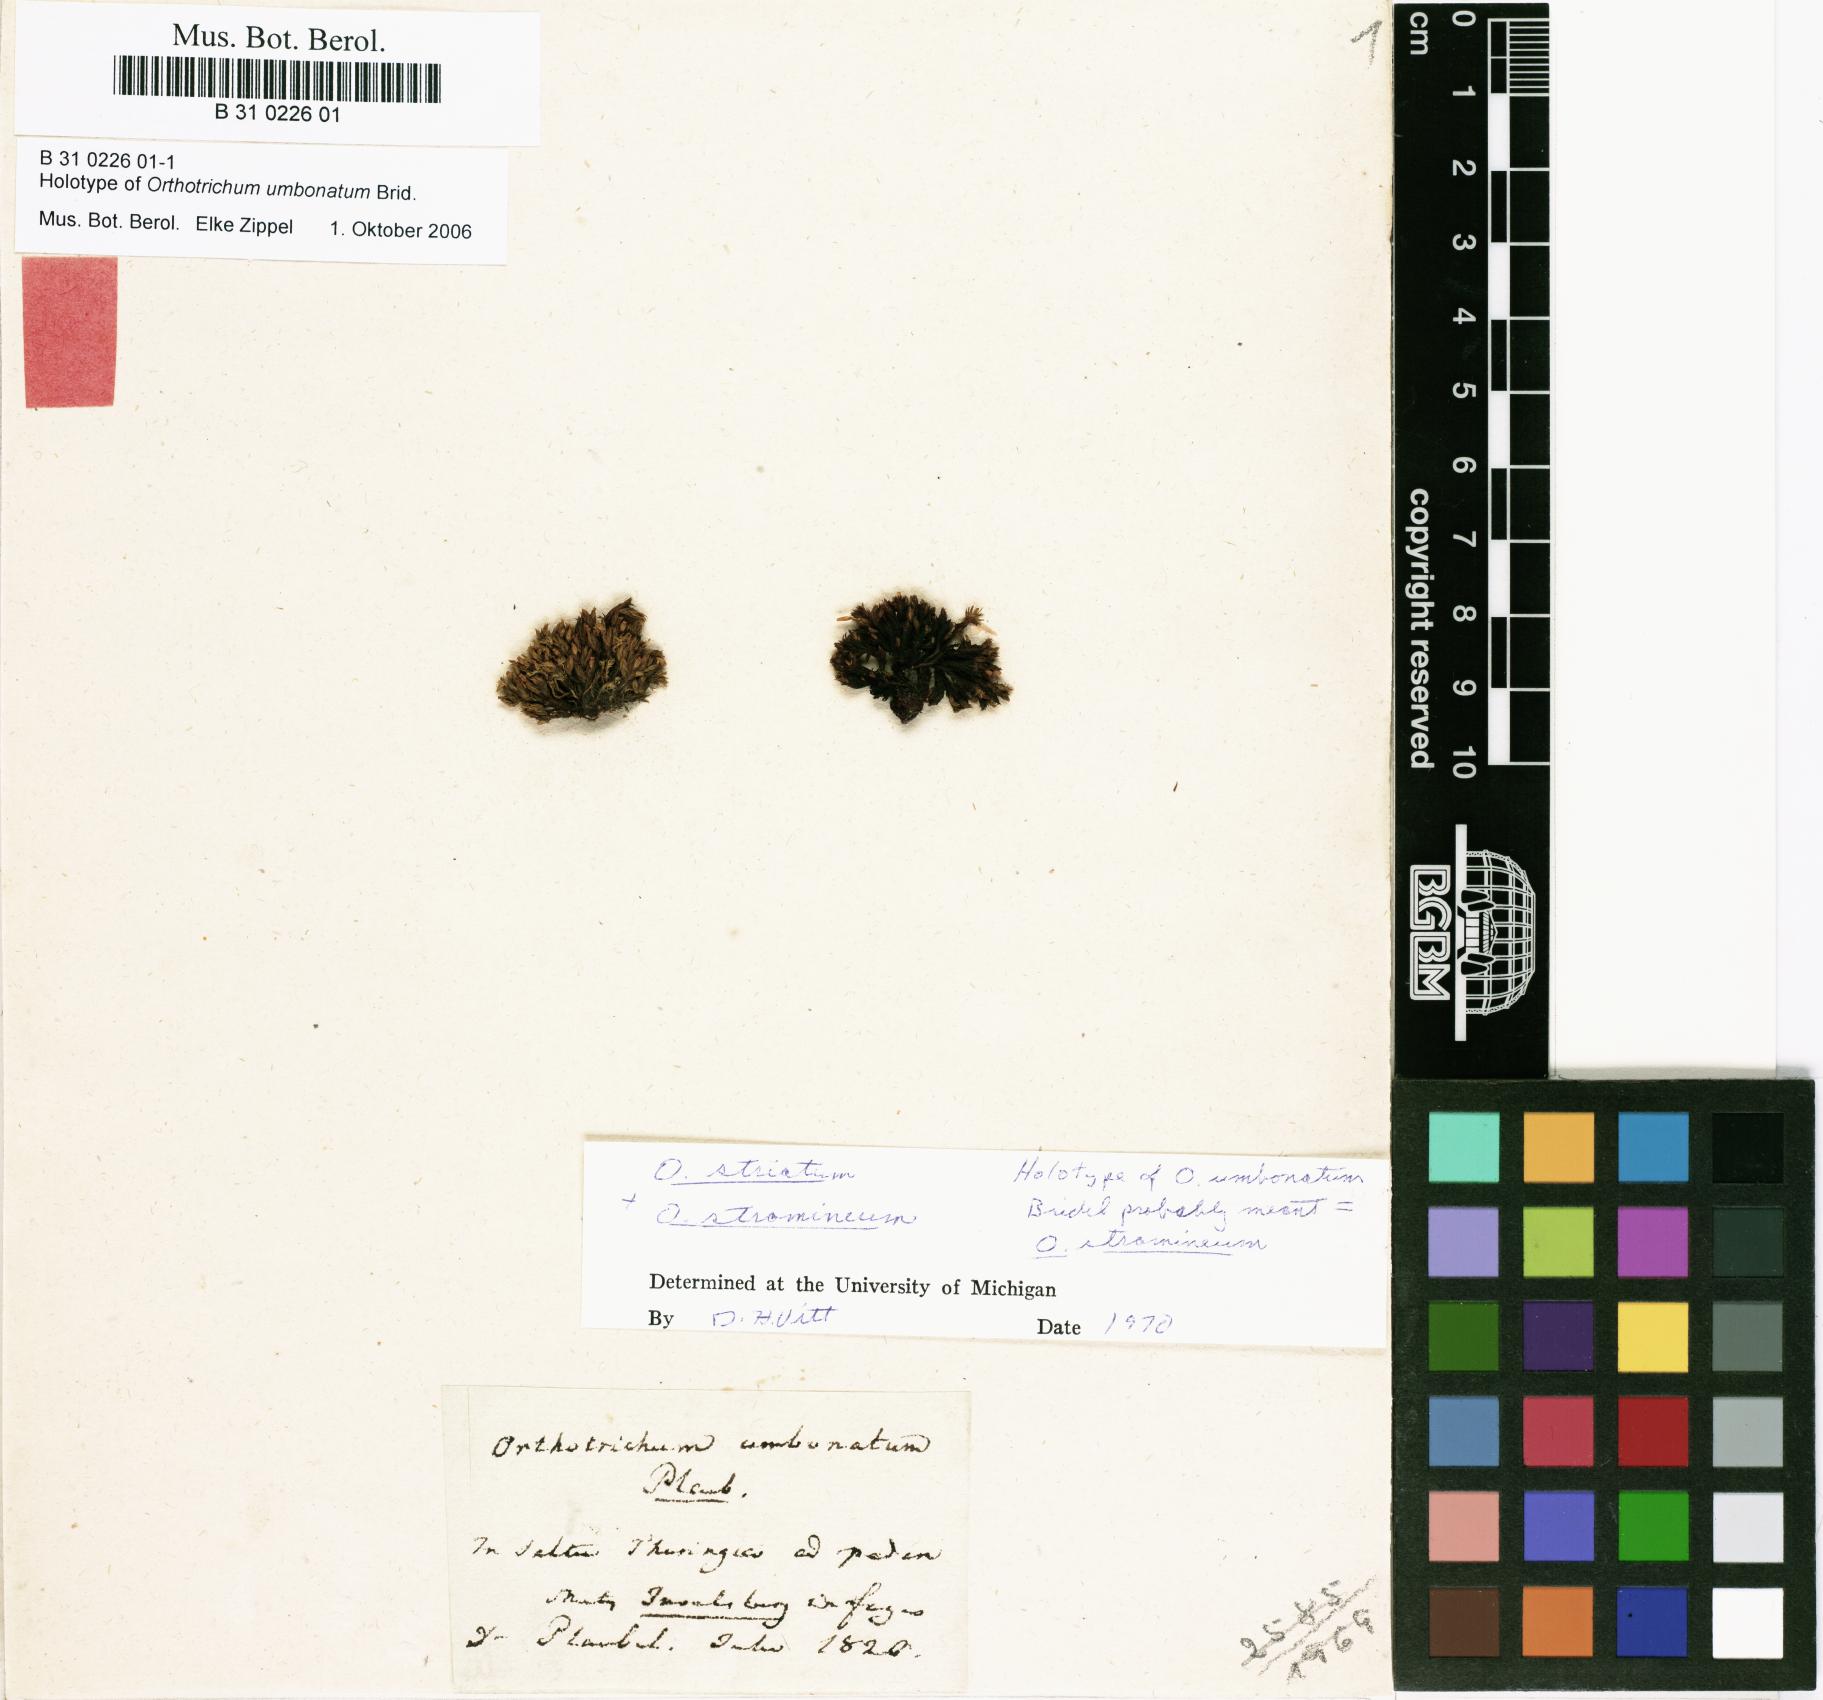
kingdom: Plantae
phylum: Bryophyta
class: Bryopsida
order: Orthotrichales
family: Orthotrichaceae
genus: Orthotrichum
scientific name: Orthotrichum stramineum
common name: Straw bristle-moss
